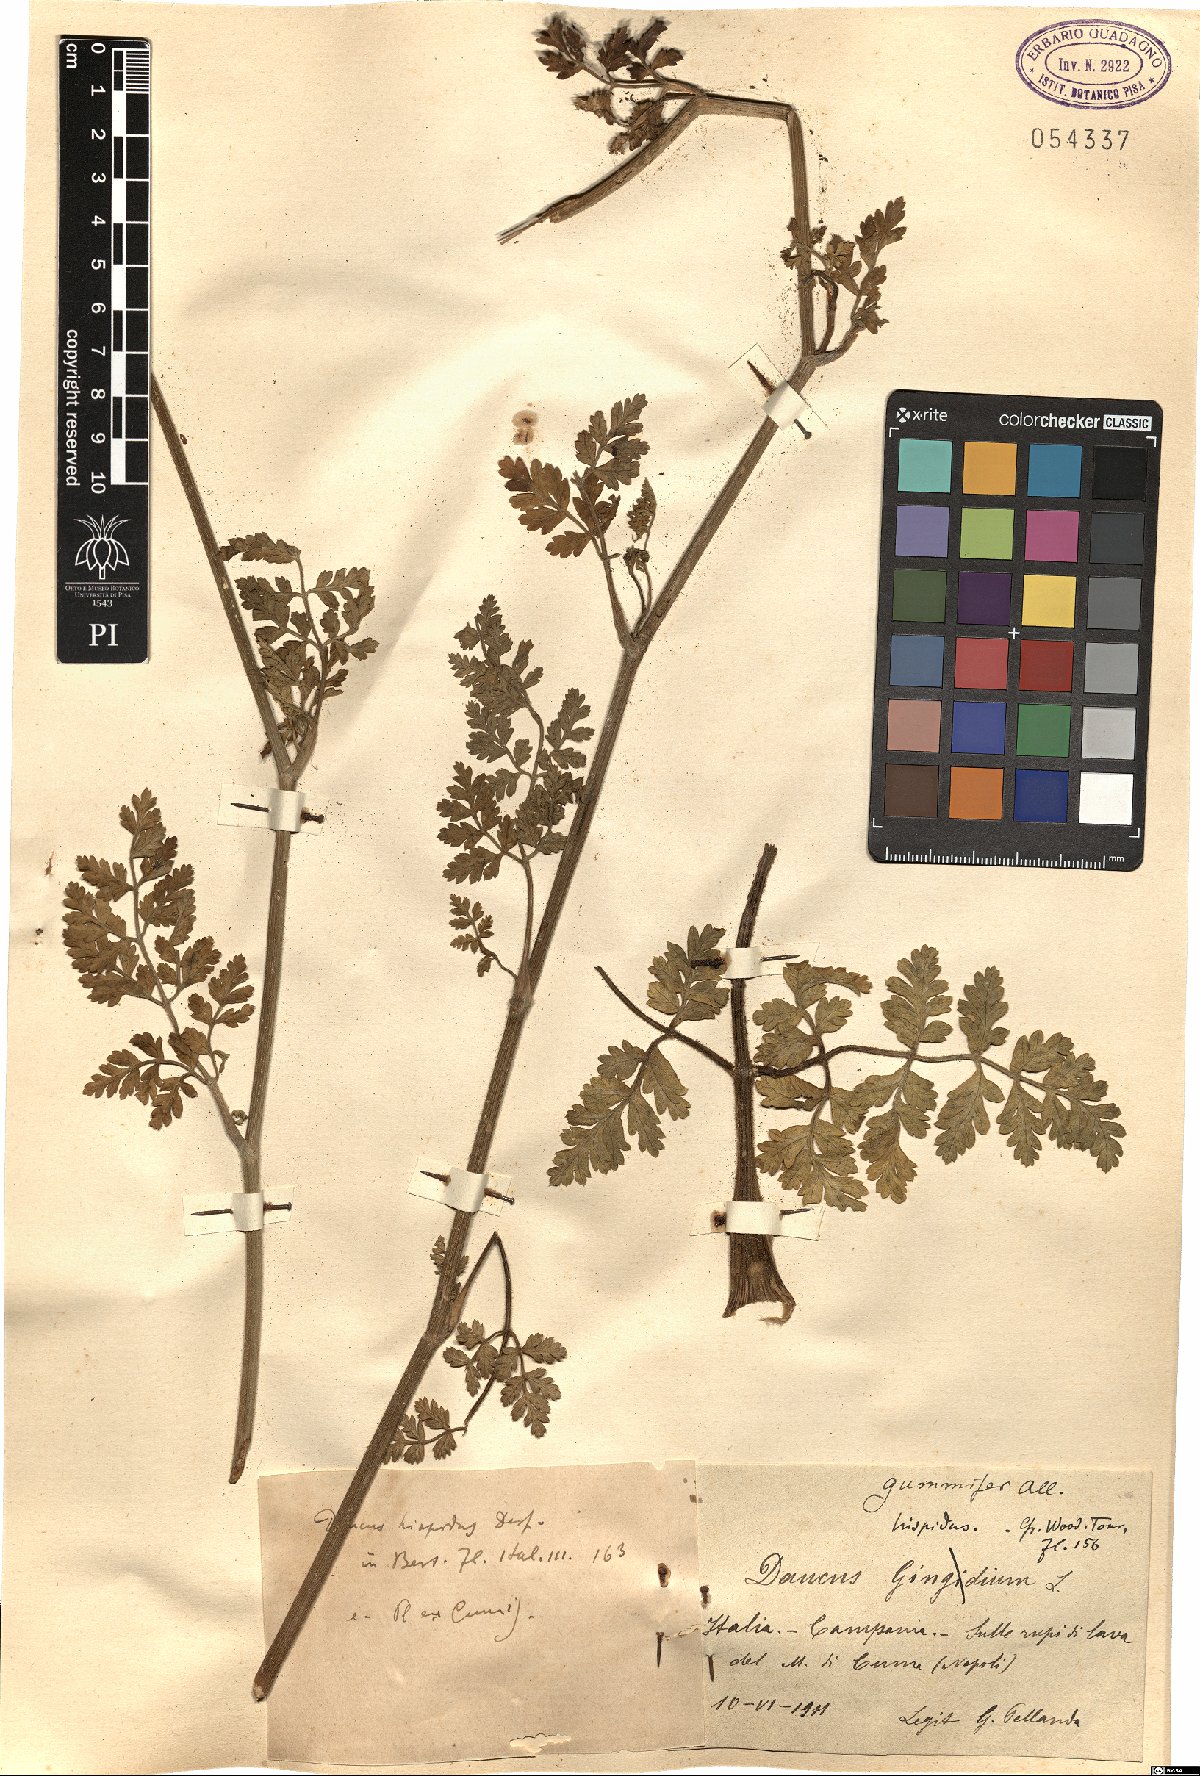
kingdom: Plantae
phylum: Tracheophyta
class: Magnoliopsida
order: Apiales
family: Apiaceae
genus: Daucus
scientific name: Daucus carota
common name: Wild carrot
